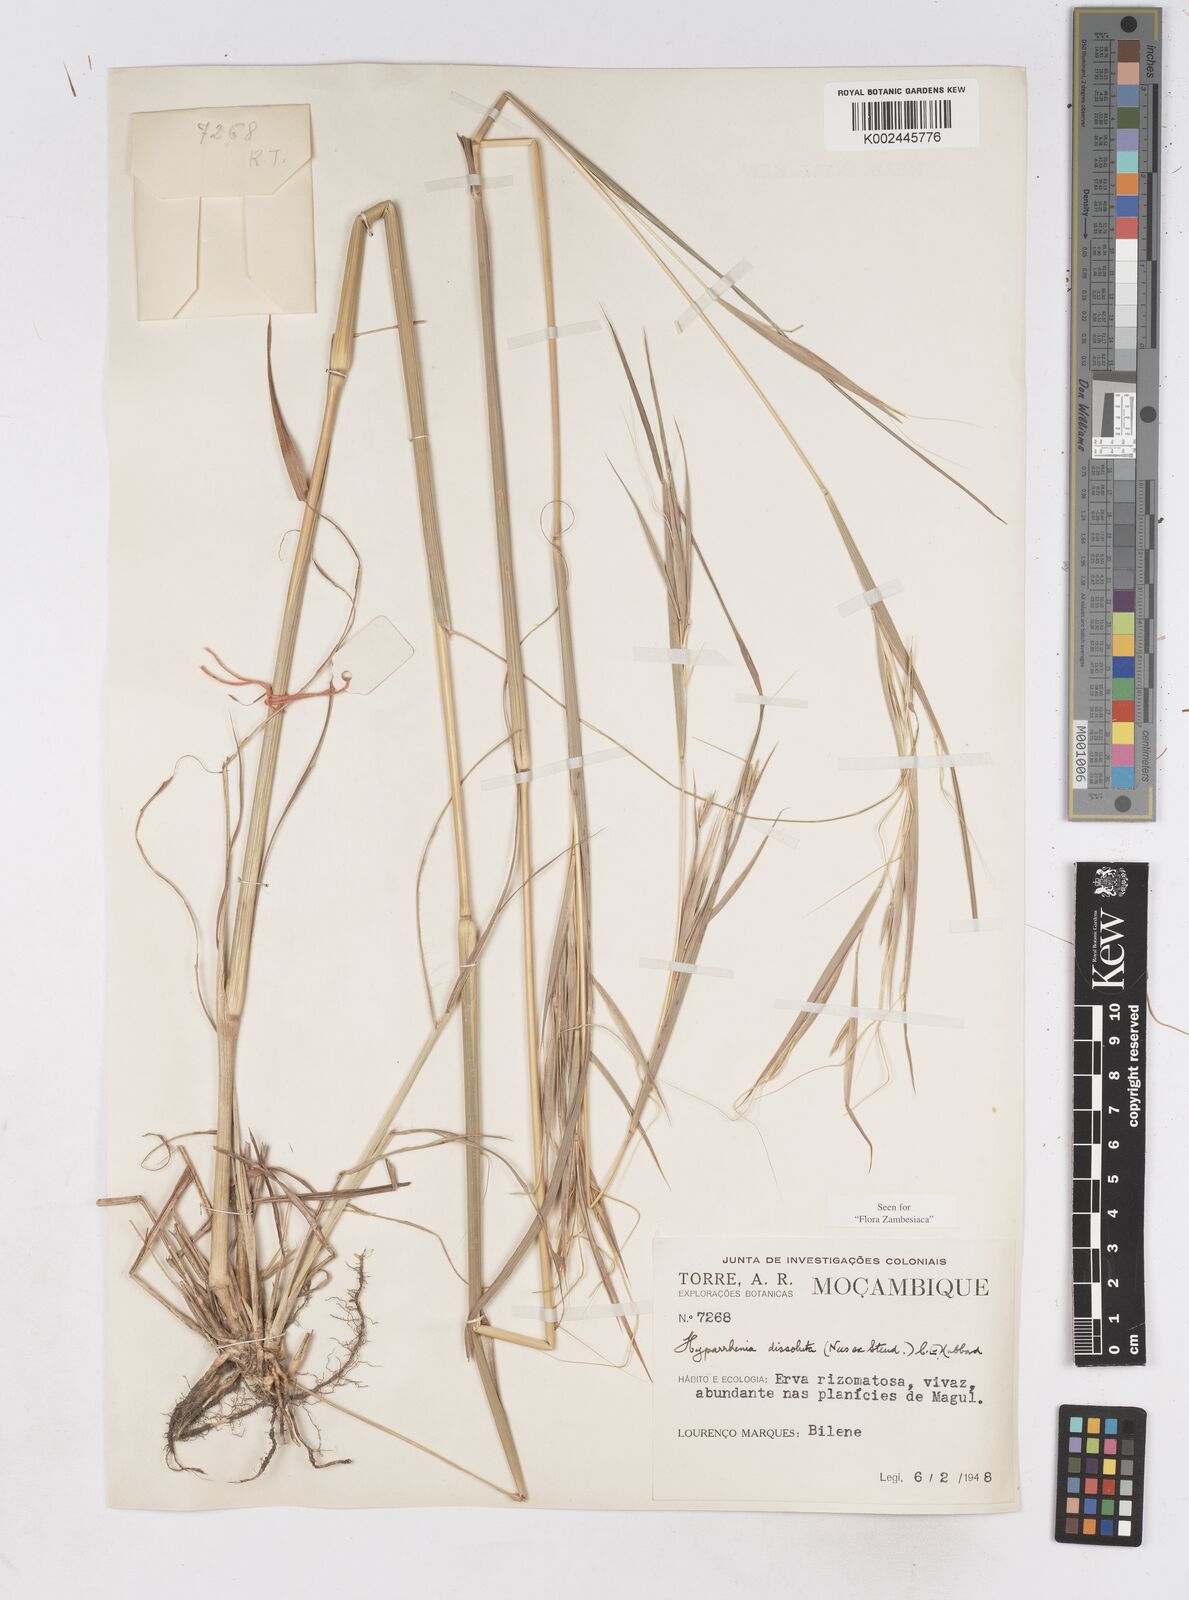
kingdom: Plantae
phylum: Tracheophyta
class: Liliopsida
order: Poales
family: Poaceae
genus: Hyperthelia
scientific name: Hyperthelia dissoluta
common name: Yellow thatching grass
